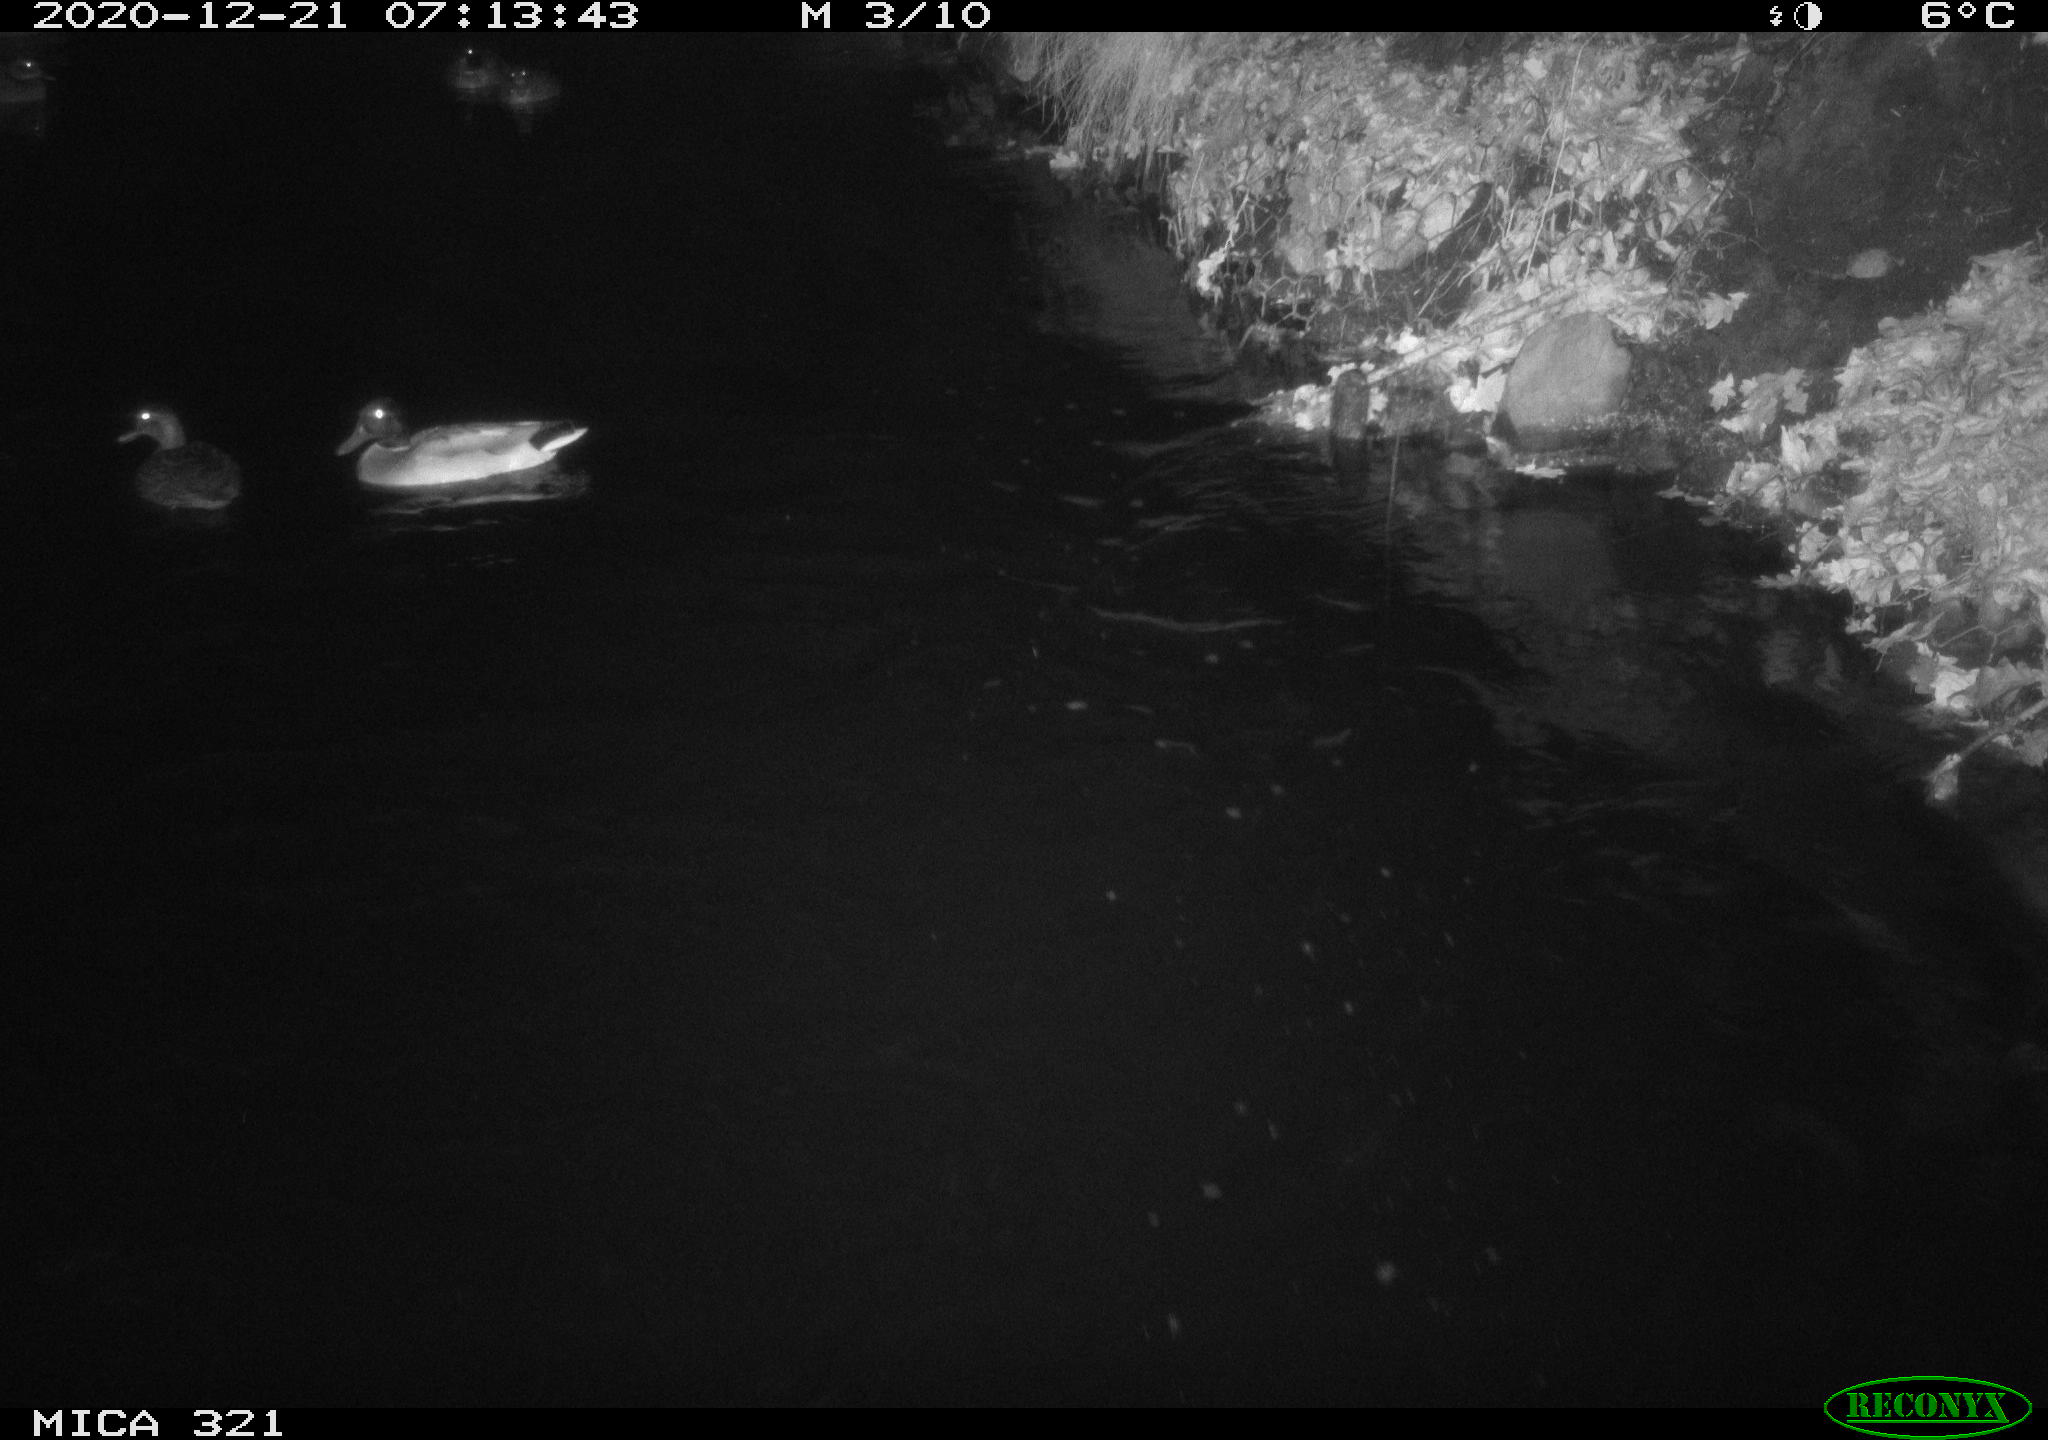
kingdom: Animalia
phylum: Chordata
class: Aves
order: Anseriformes
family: Anatidae
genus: Anas
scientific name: Anas platyrhynchos
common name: Mallard
